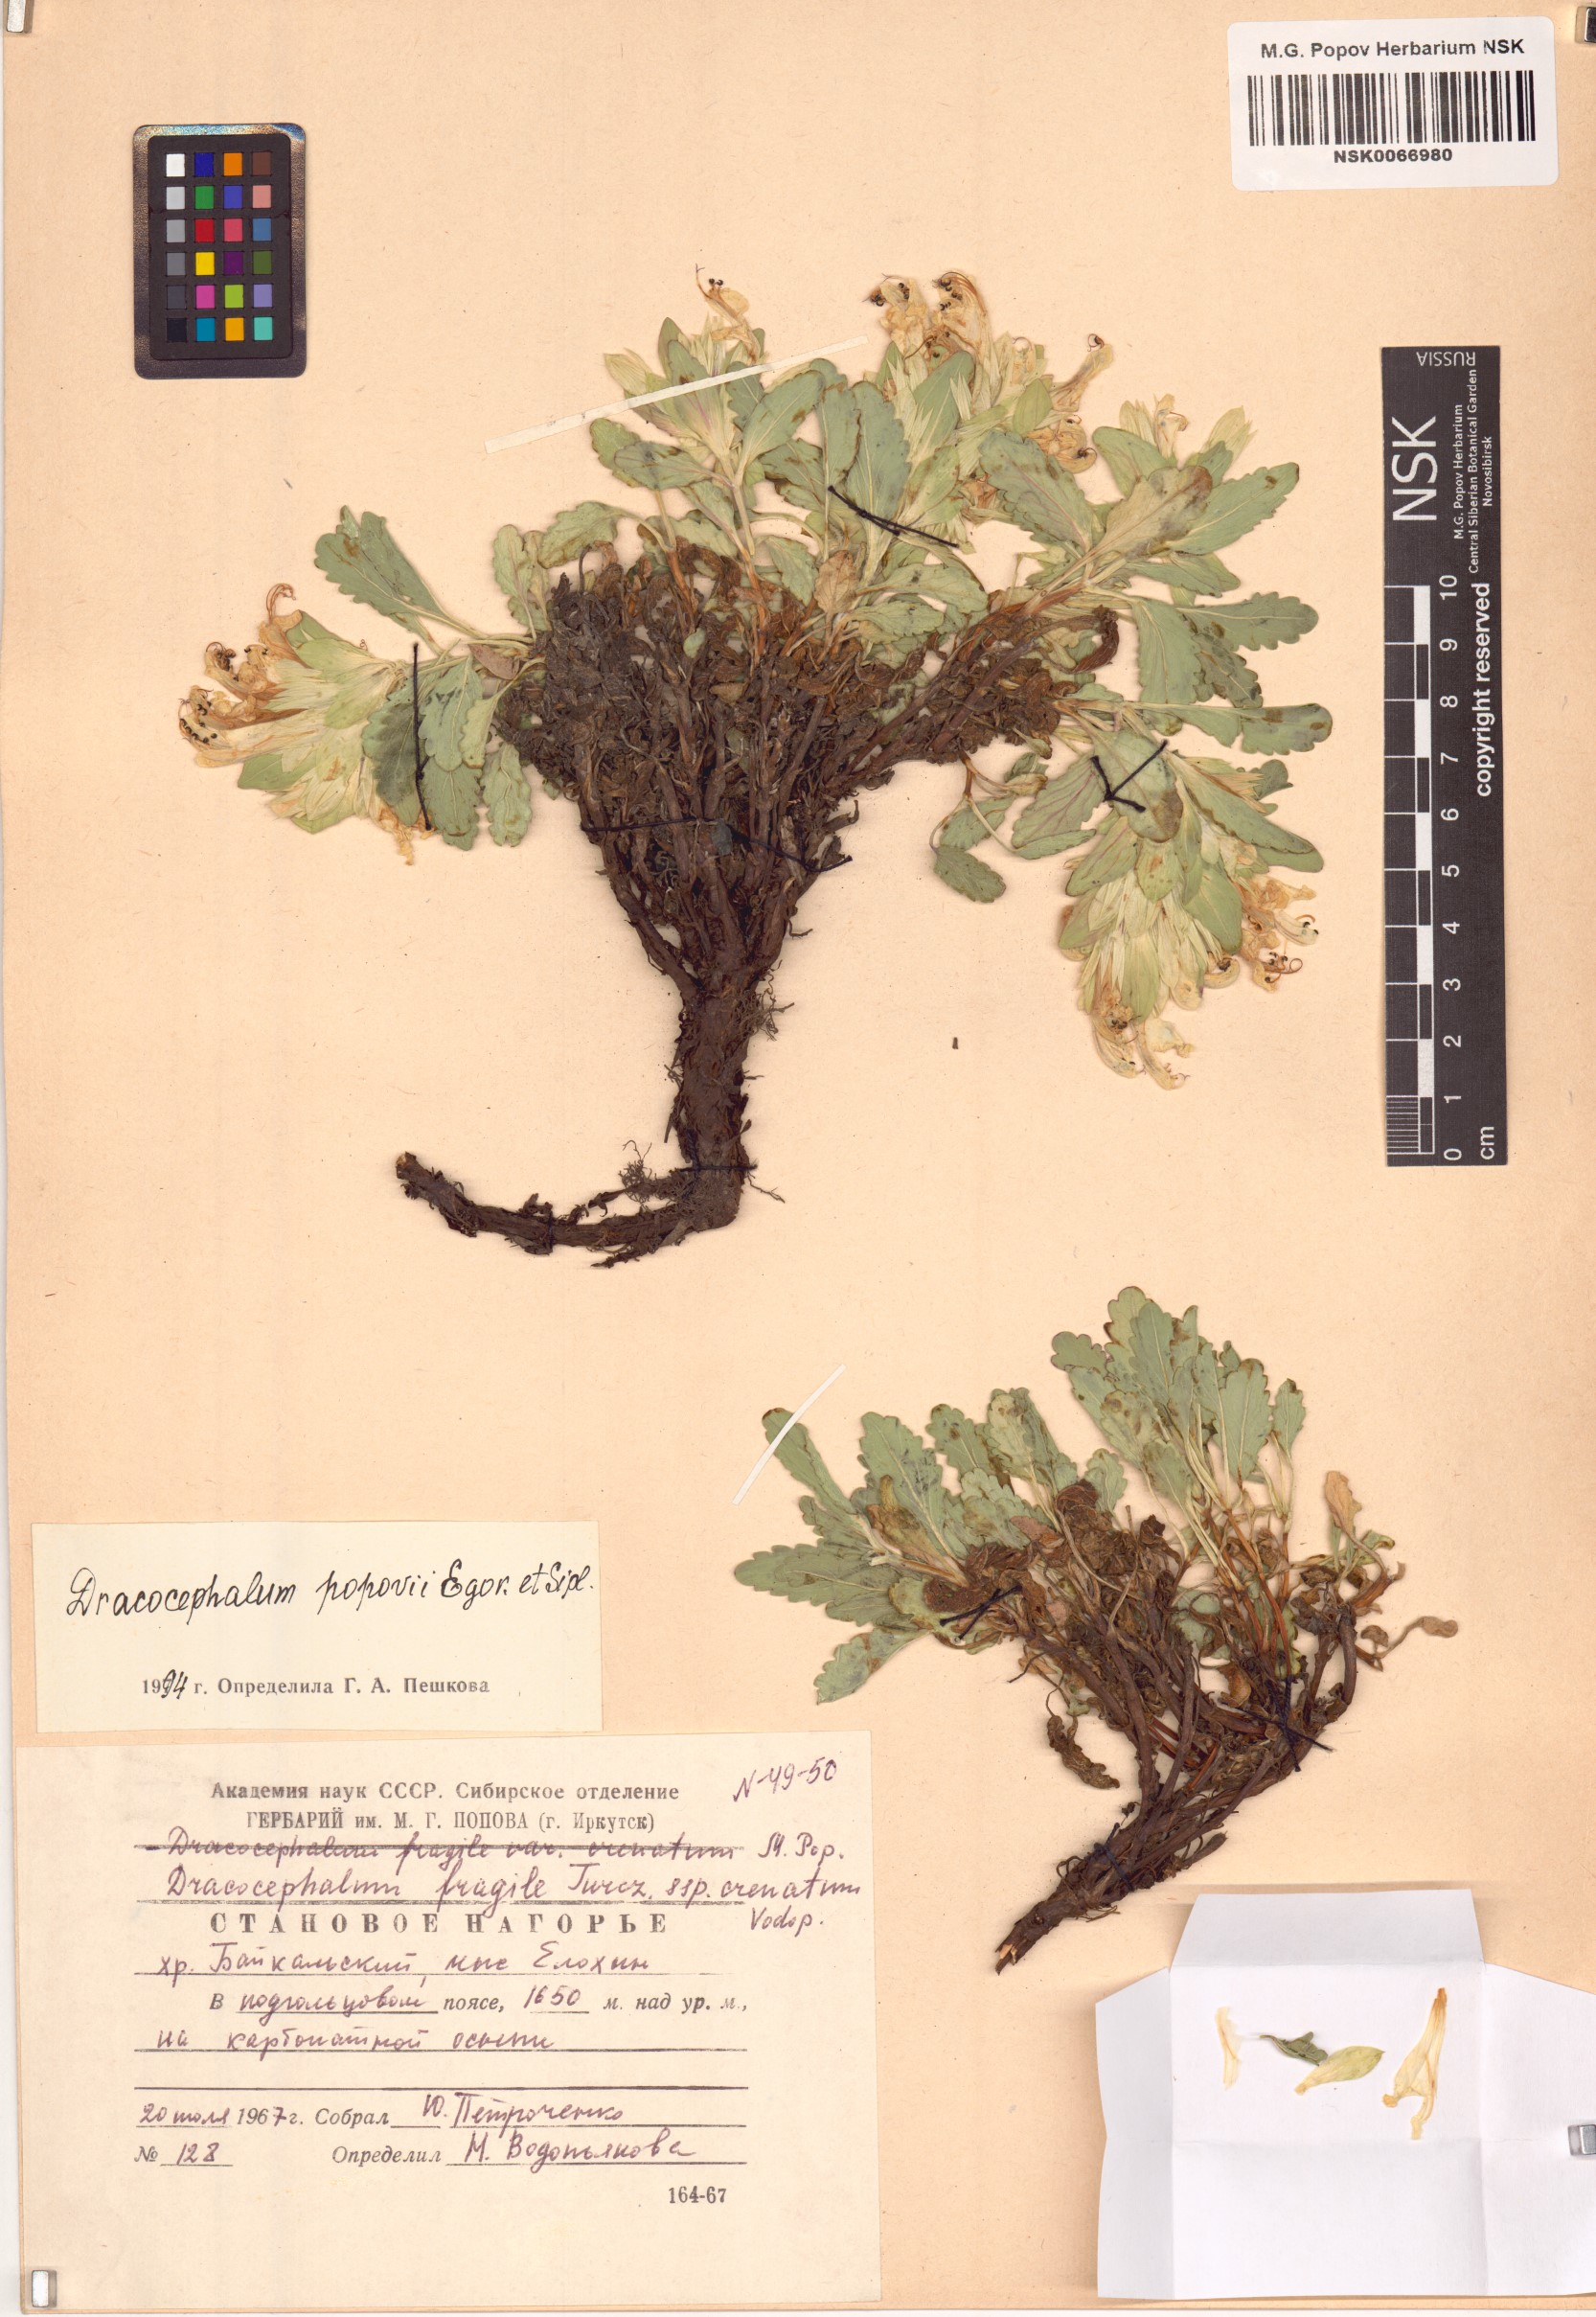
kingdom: Plantae
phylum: Tracheophyta
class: Magnoliopsida
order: Lamiales
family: Lamiaceae
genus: Dracocephalum
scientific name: Dracocephalum popovii
